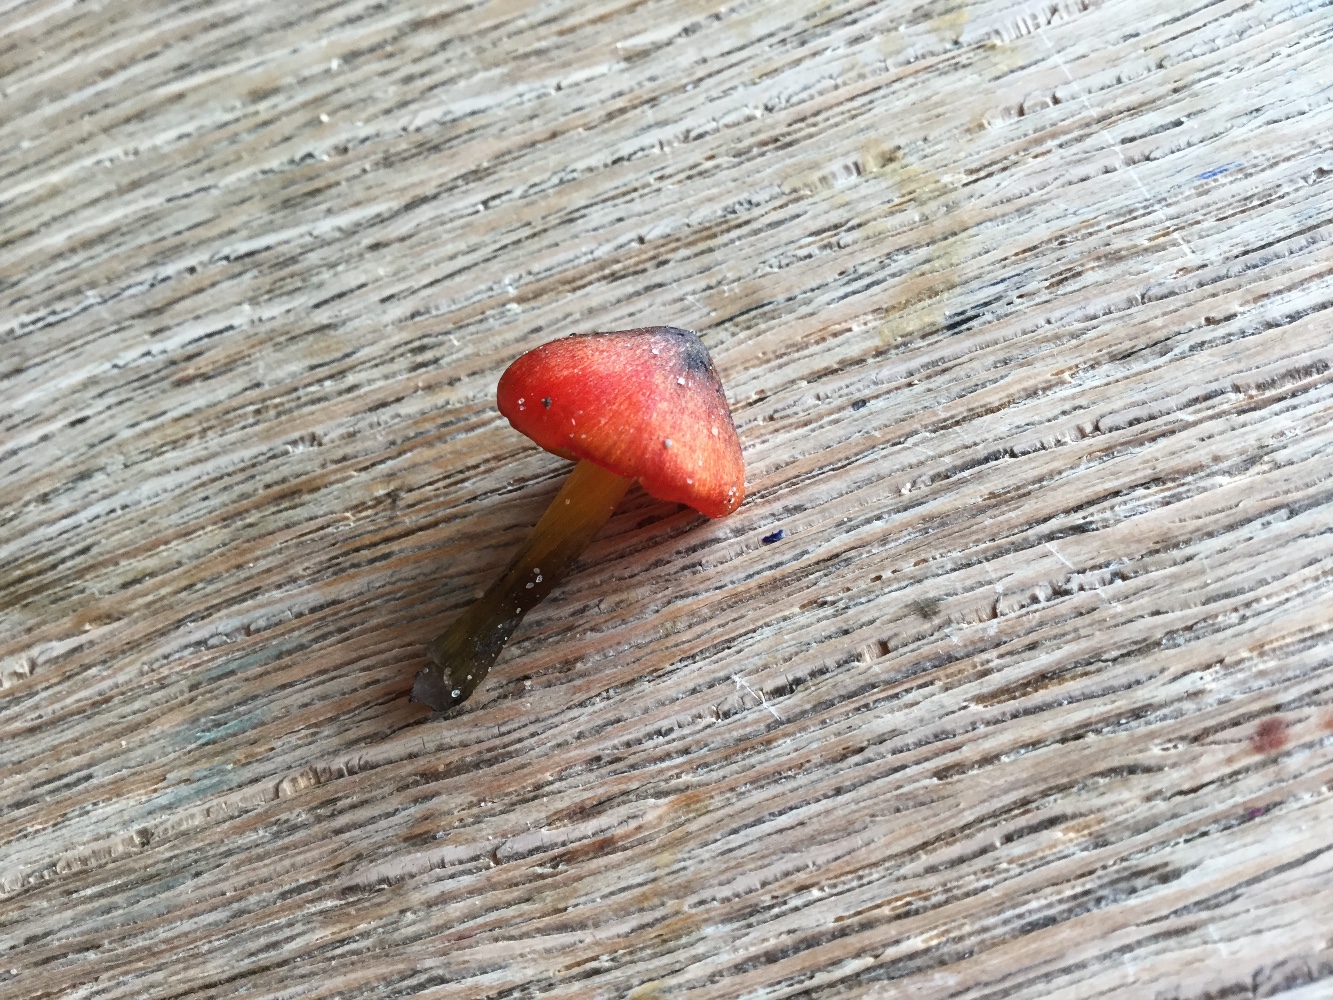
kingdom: Fungi
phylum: Basidiomycota
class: Agaricomycetes
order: Agaricales
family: Hygrophoraceae
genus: Hygrocybe
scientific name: Hygrocybe conica
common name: kegle-vokshat
